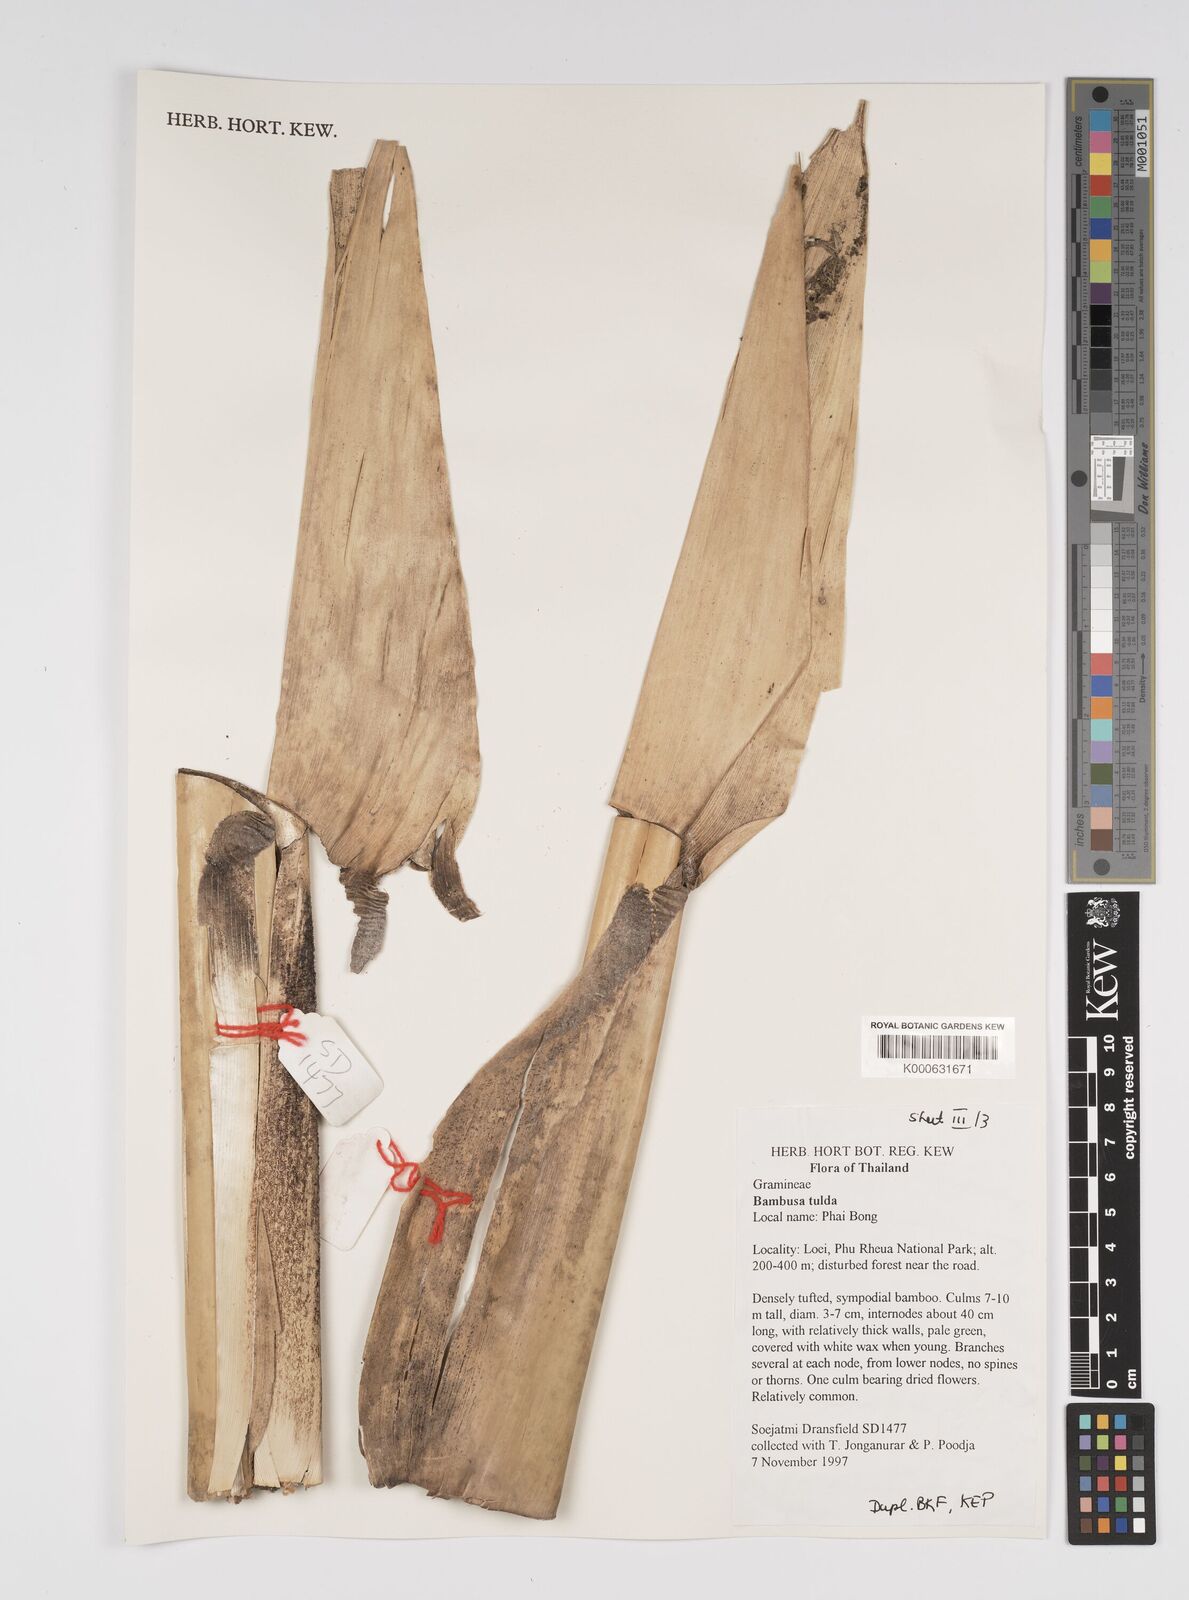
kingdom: Plantae
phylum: Tracheophyta
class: Liliopsida
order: Poales
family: Poaceae
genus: Bambusa
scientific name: Bambusa
